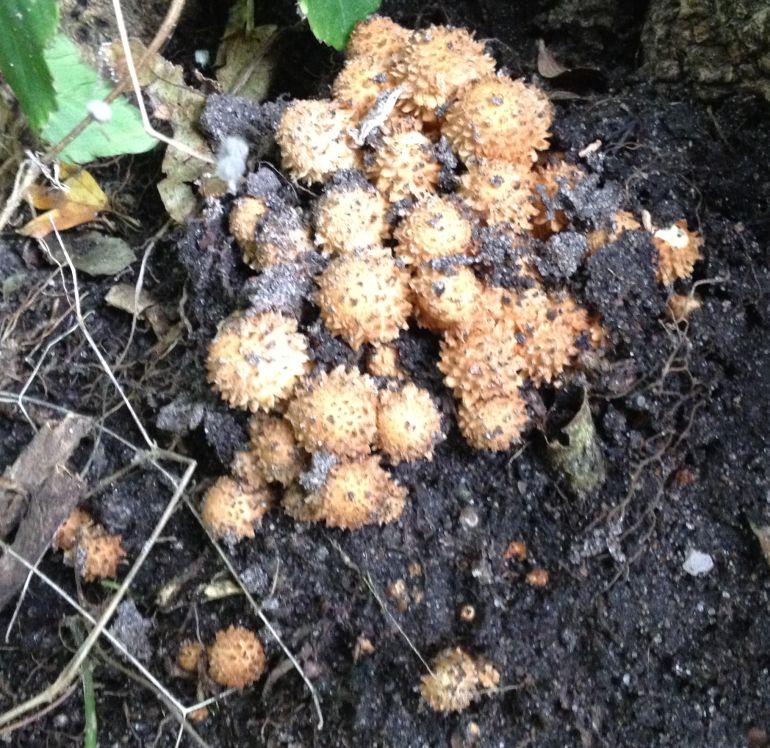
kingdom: Fungi
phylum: Basidiomycota
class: Agaricomycetes
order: Agaricales
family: Strophariaceae
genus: Pholiota
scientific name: Pholiota squarrosa
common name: krumskællet skælhat
